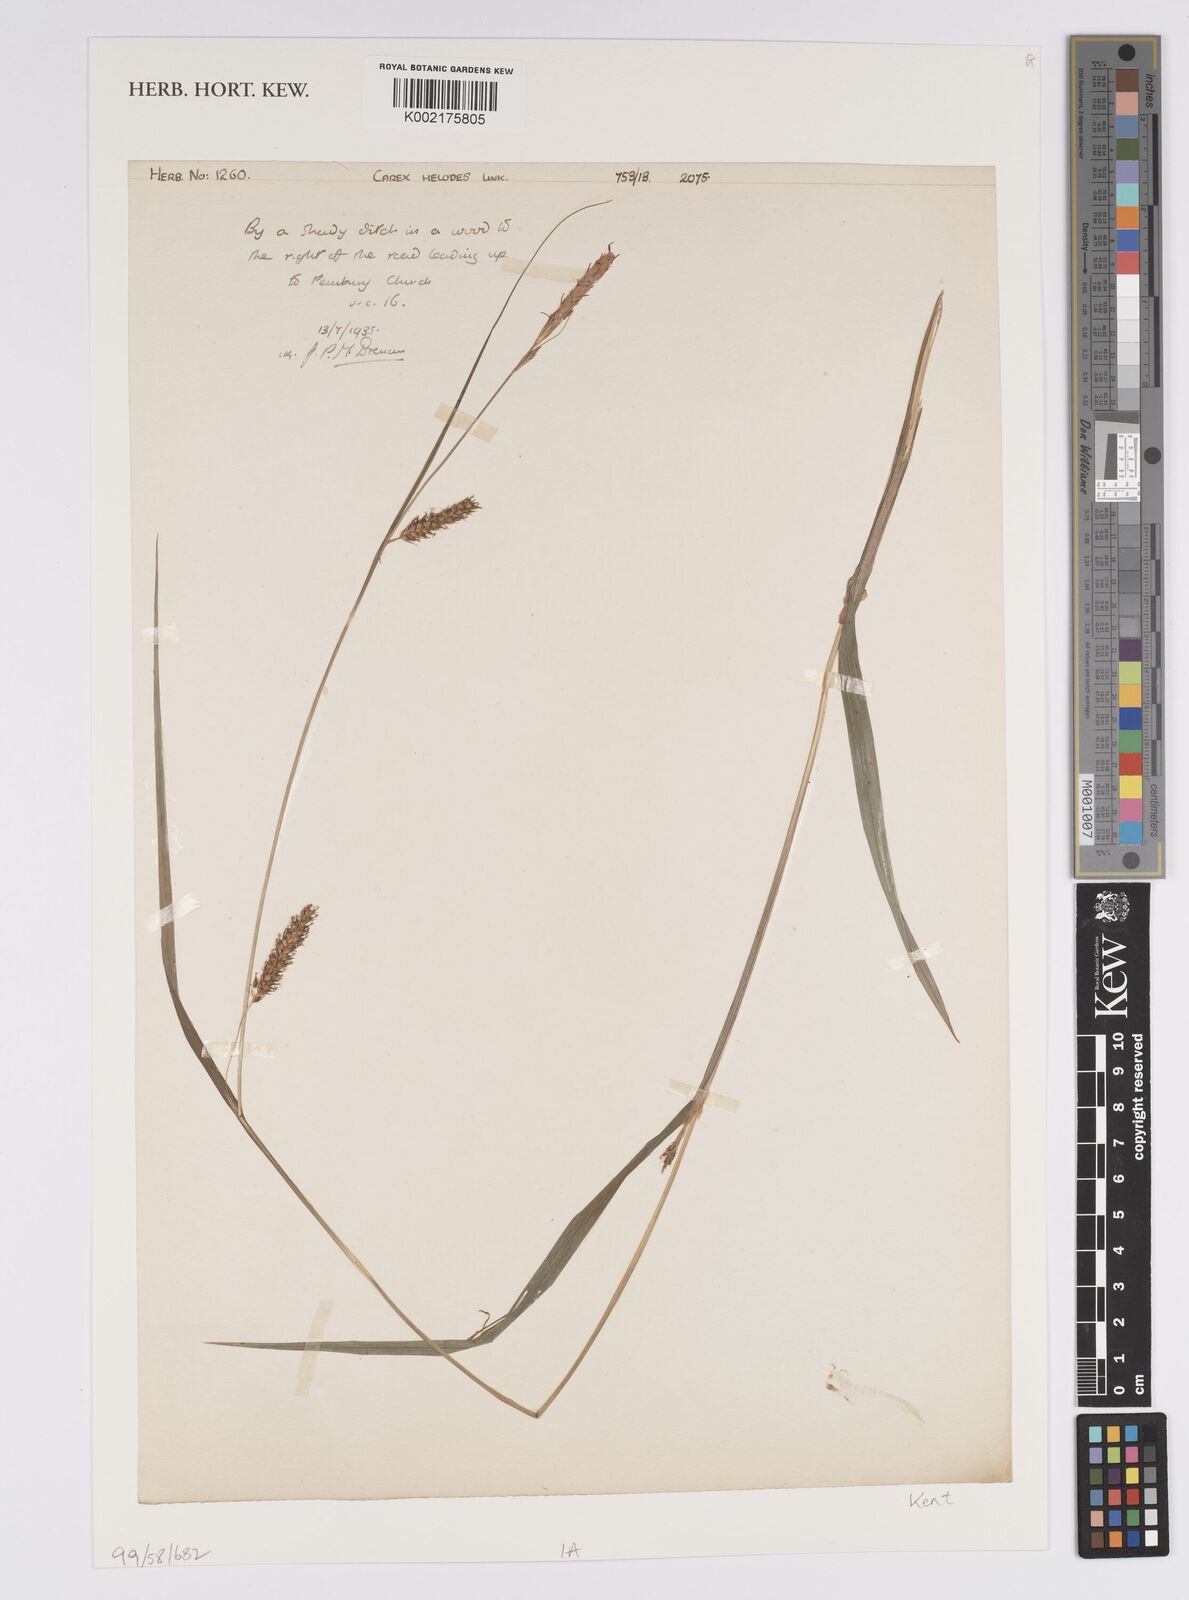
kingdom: Plantae
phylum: Tracheophyta
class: Liliopsida
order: Poales
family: Cyperaceae
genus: Carex
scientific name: Carex laevigata
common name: Smooth-stalked sedge
